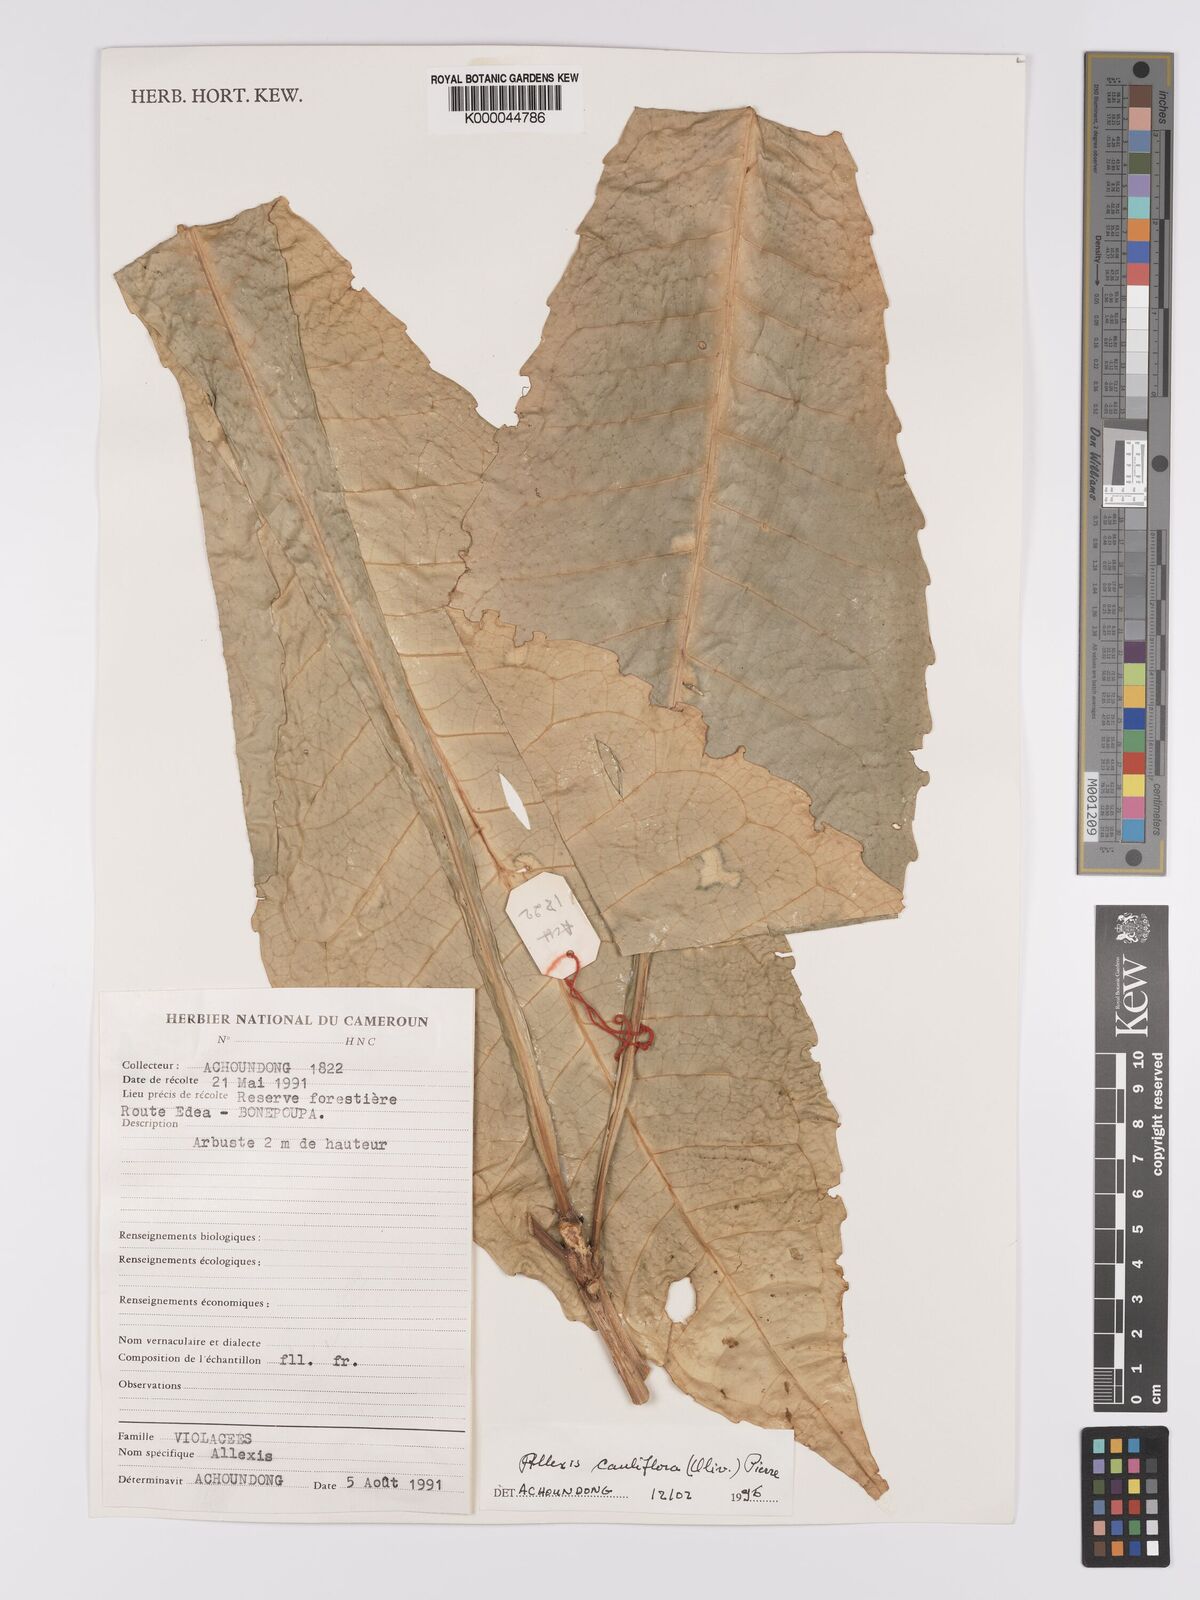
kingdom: Plantae
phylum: Tracheophyta
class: Magnoliopsida
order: Malpighiales
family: Violaceae
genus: Allexis
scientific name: Allexis cauliflora
